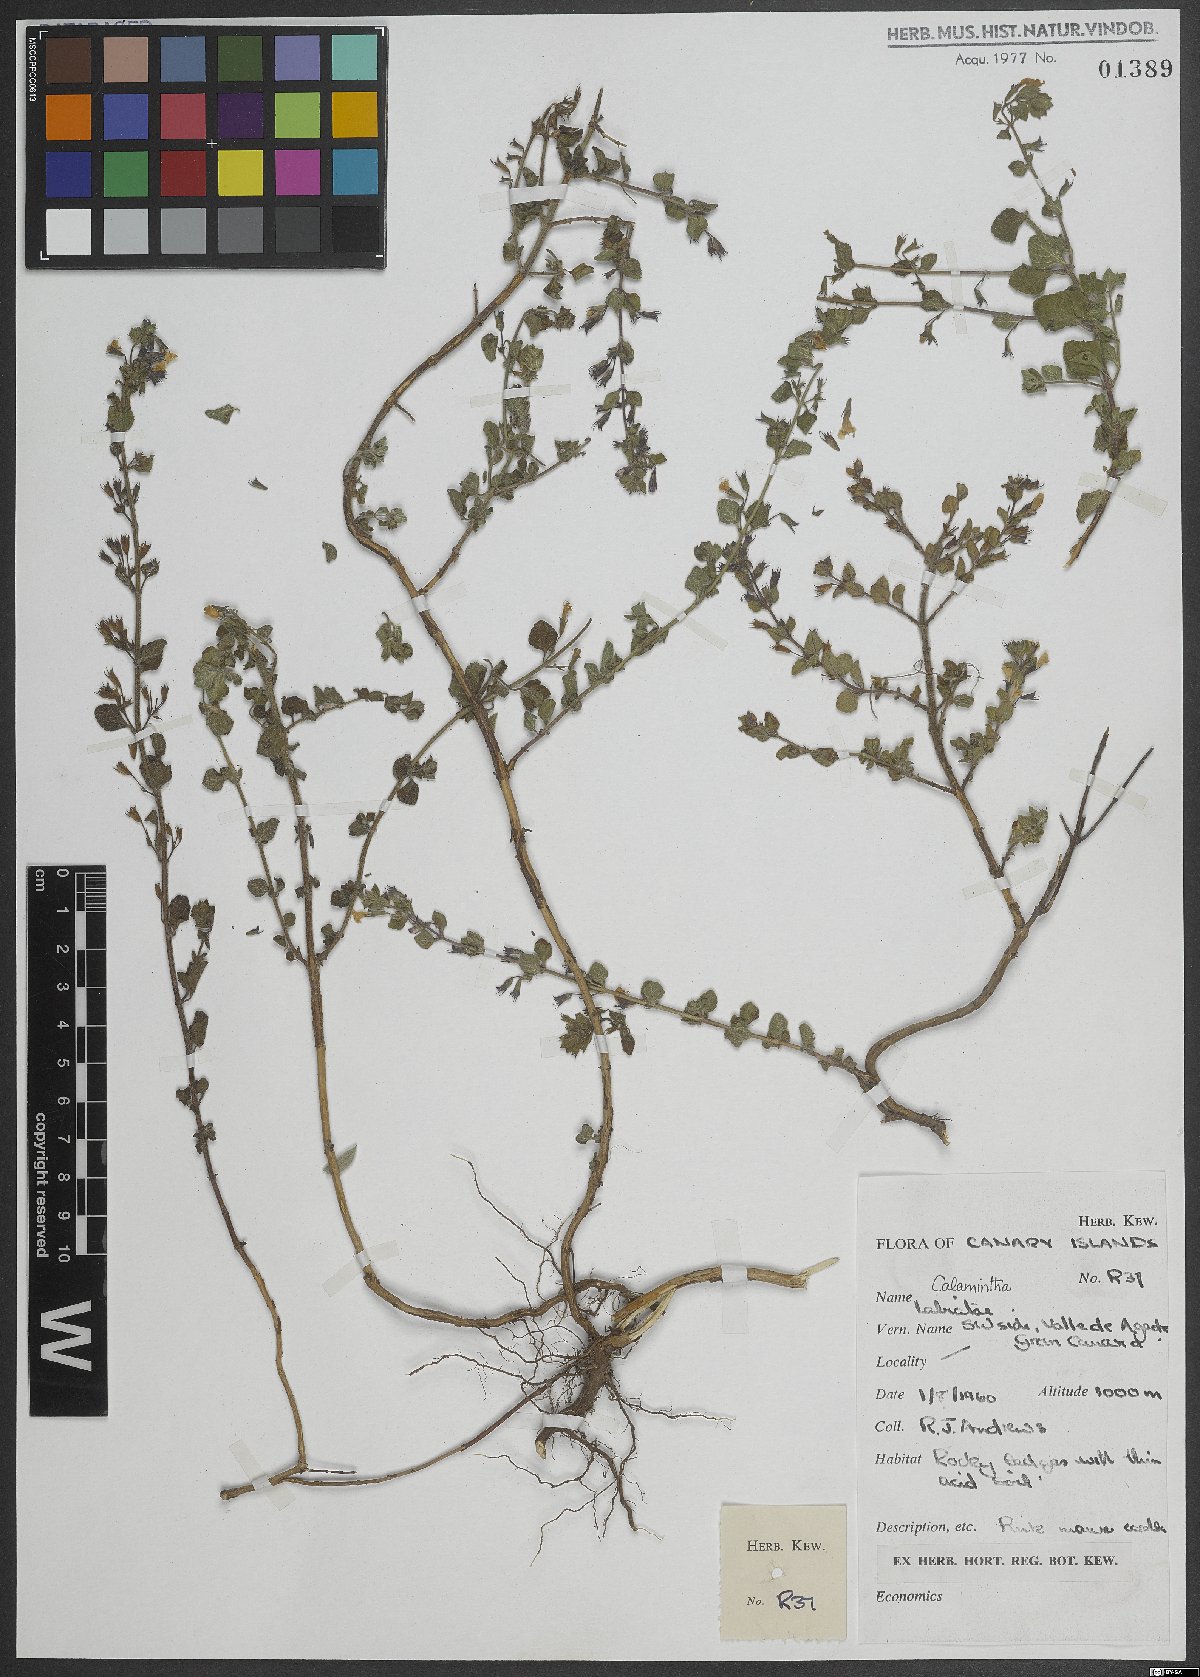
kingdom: Plantae
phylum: Tracheophyta
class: Magnoliopsida
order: Lamiales
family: Lamiaceae
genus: Calamintha
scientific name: Calamintha
